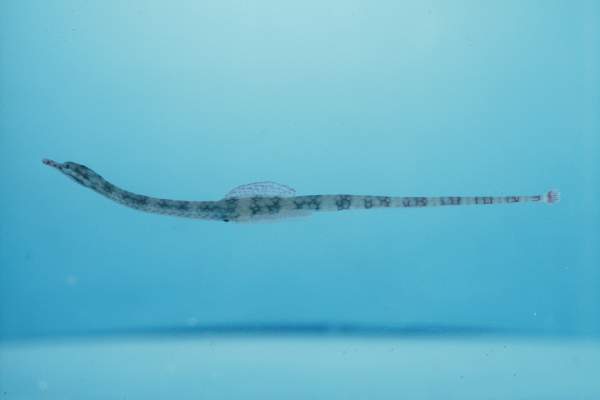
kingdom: Animalia
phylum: Chordata
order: Syngnathiformes
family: Syngnathidae
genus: Corythoichthys
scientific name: Corythoichthys flavofasciatus
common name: Banded pipefish
